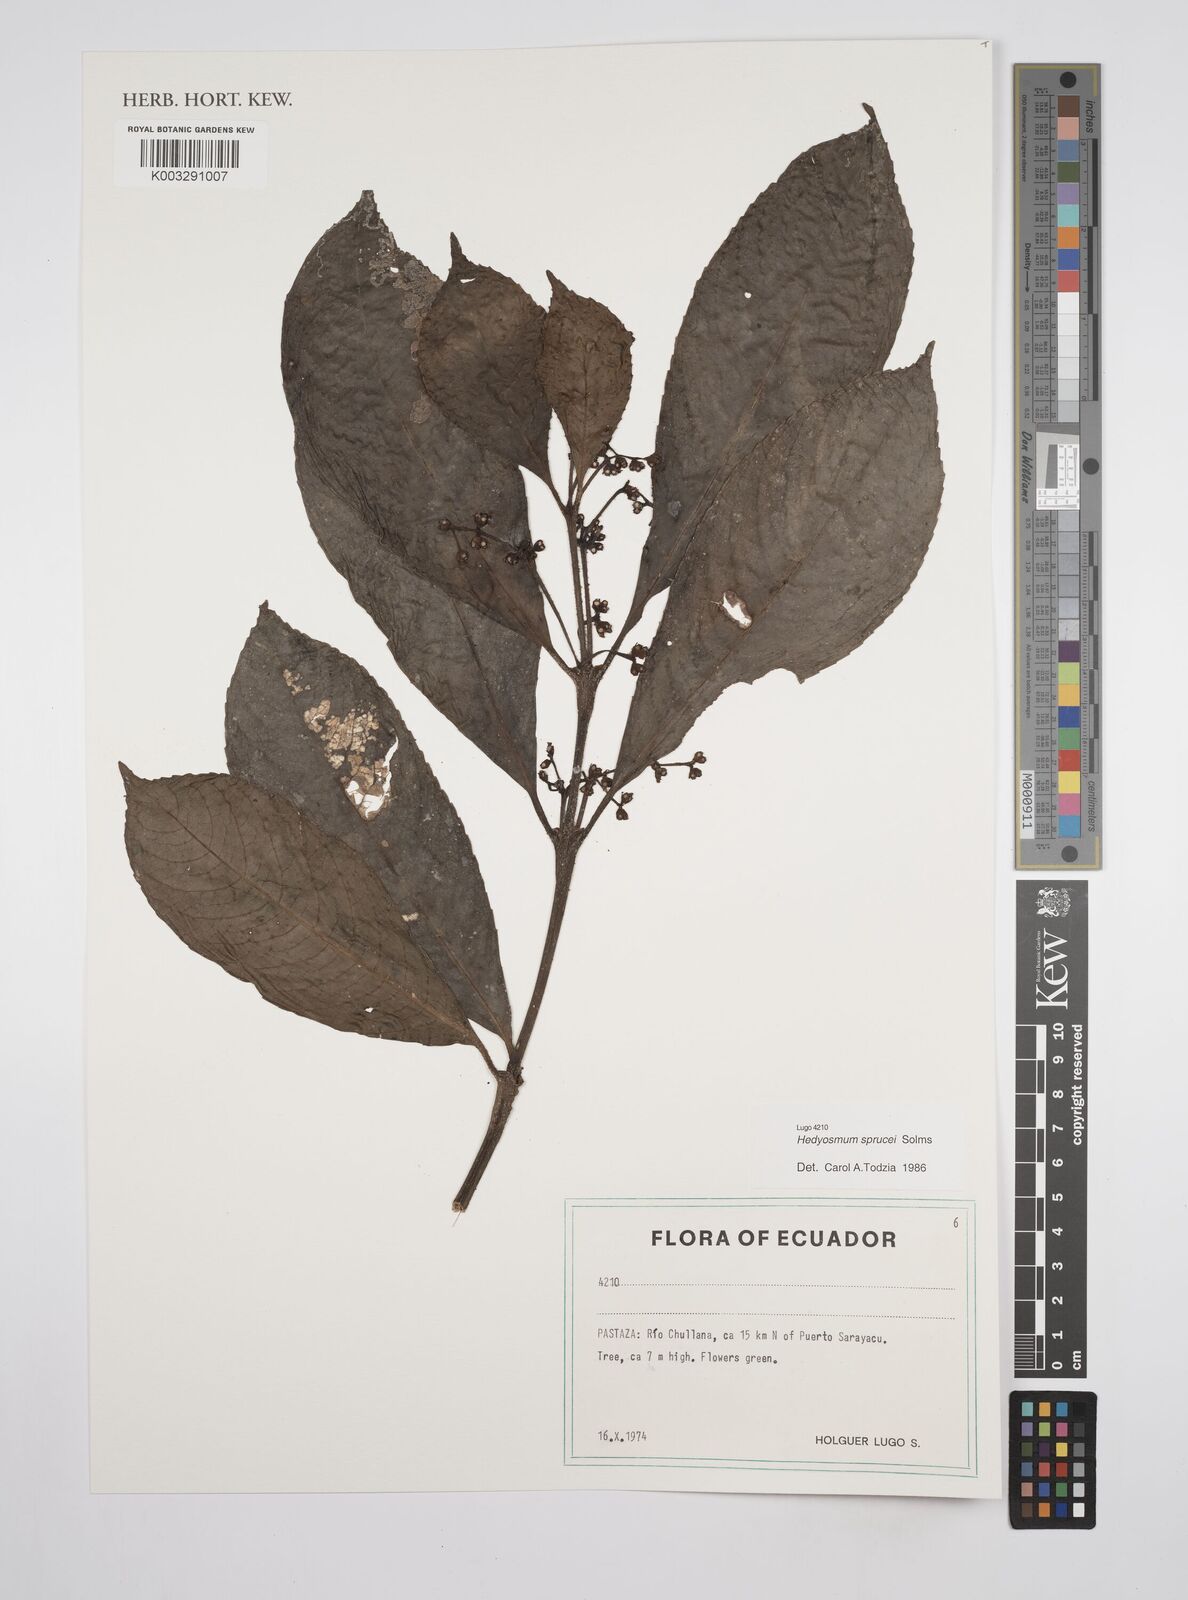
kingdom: Plantae
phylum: Tracheophyta
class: Magnoliopsida
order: Chloranthales
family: Chloranthaceae
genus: Hedyosmum
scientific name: Hedyosmum sprucei
